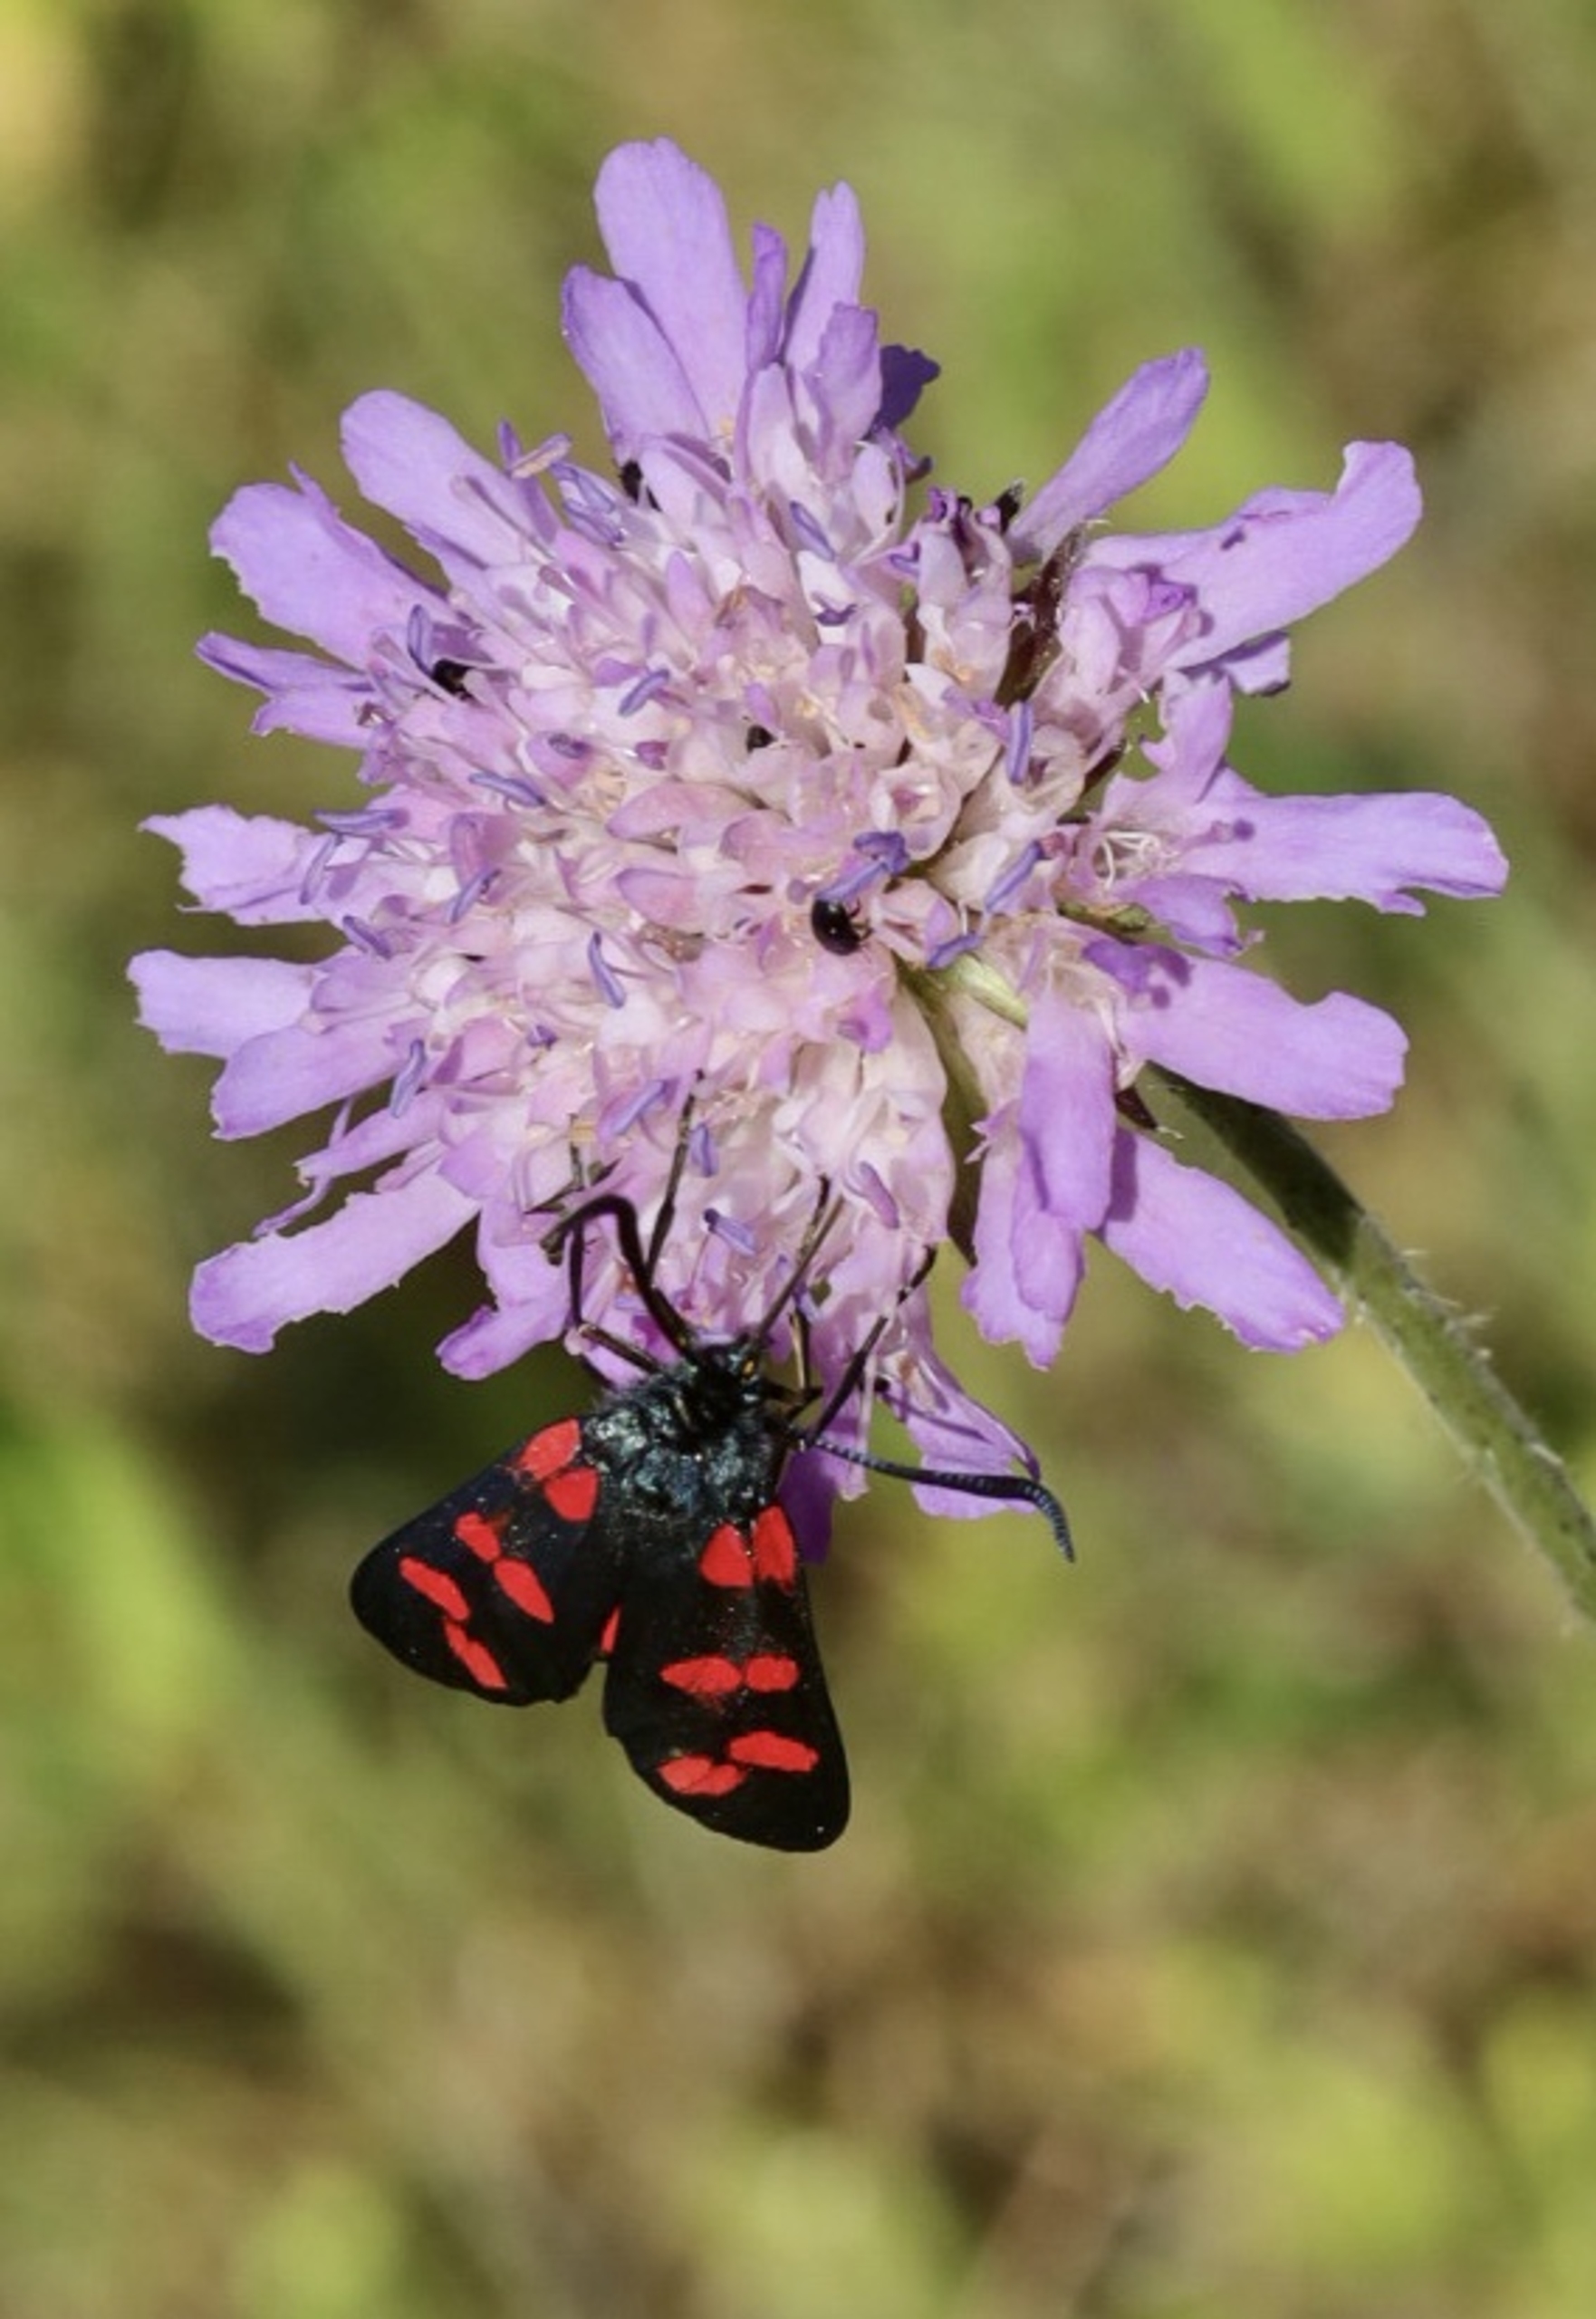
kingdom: Animalia
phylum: Arthropoda
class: Insecta
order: Lepidoptera
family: Zygaenidae
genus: Zygaena
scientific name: Zygaena filipendulae
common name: Seksplettet køllesværmer
